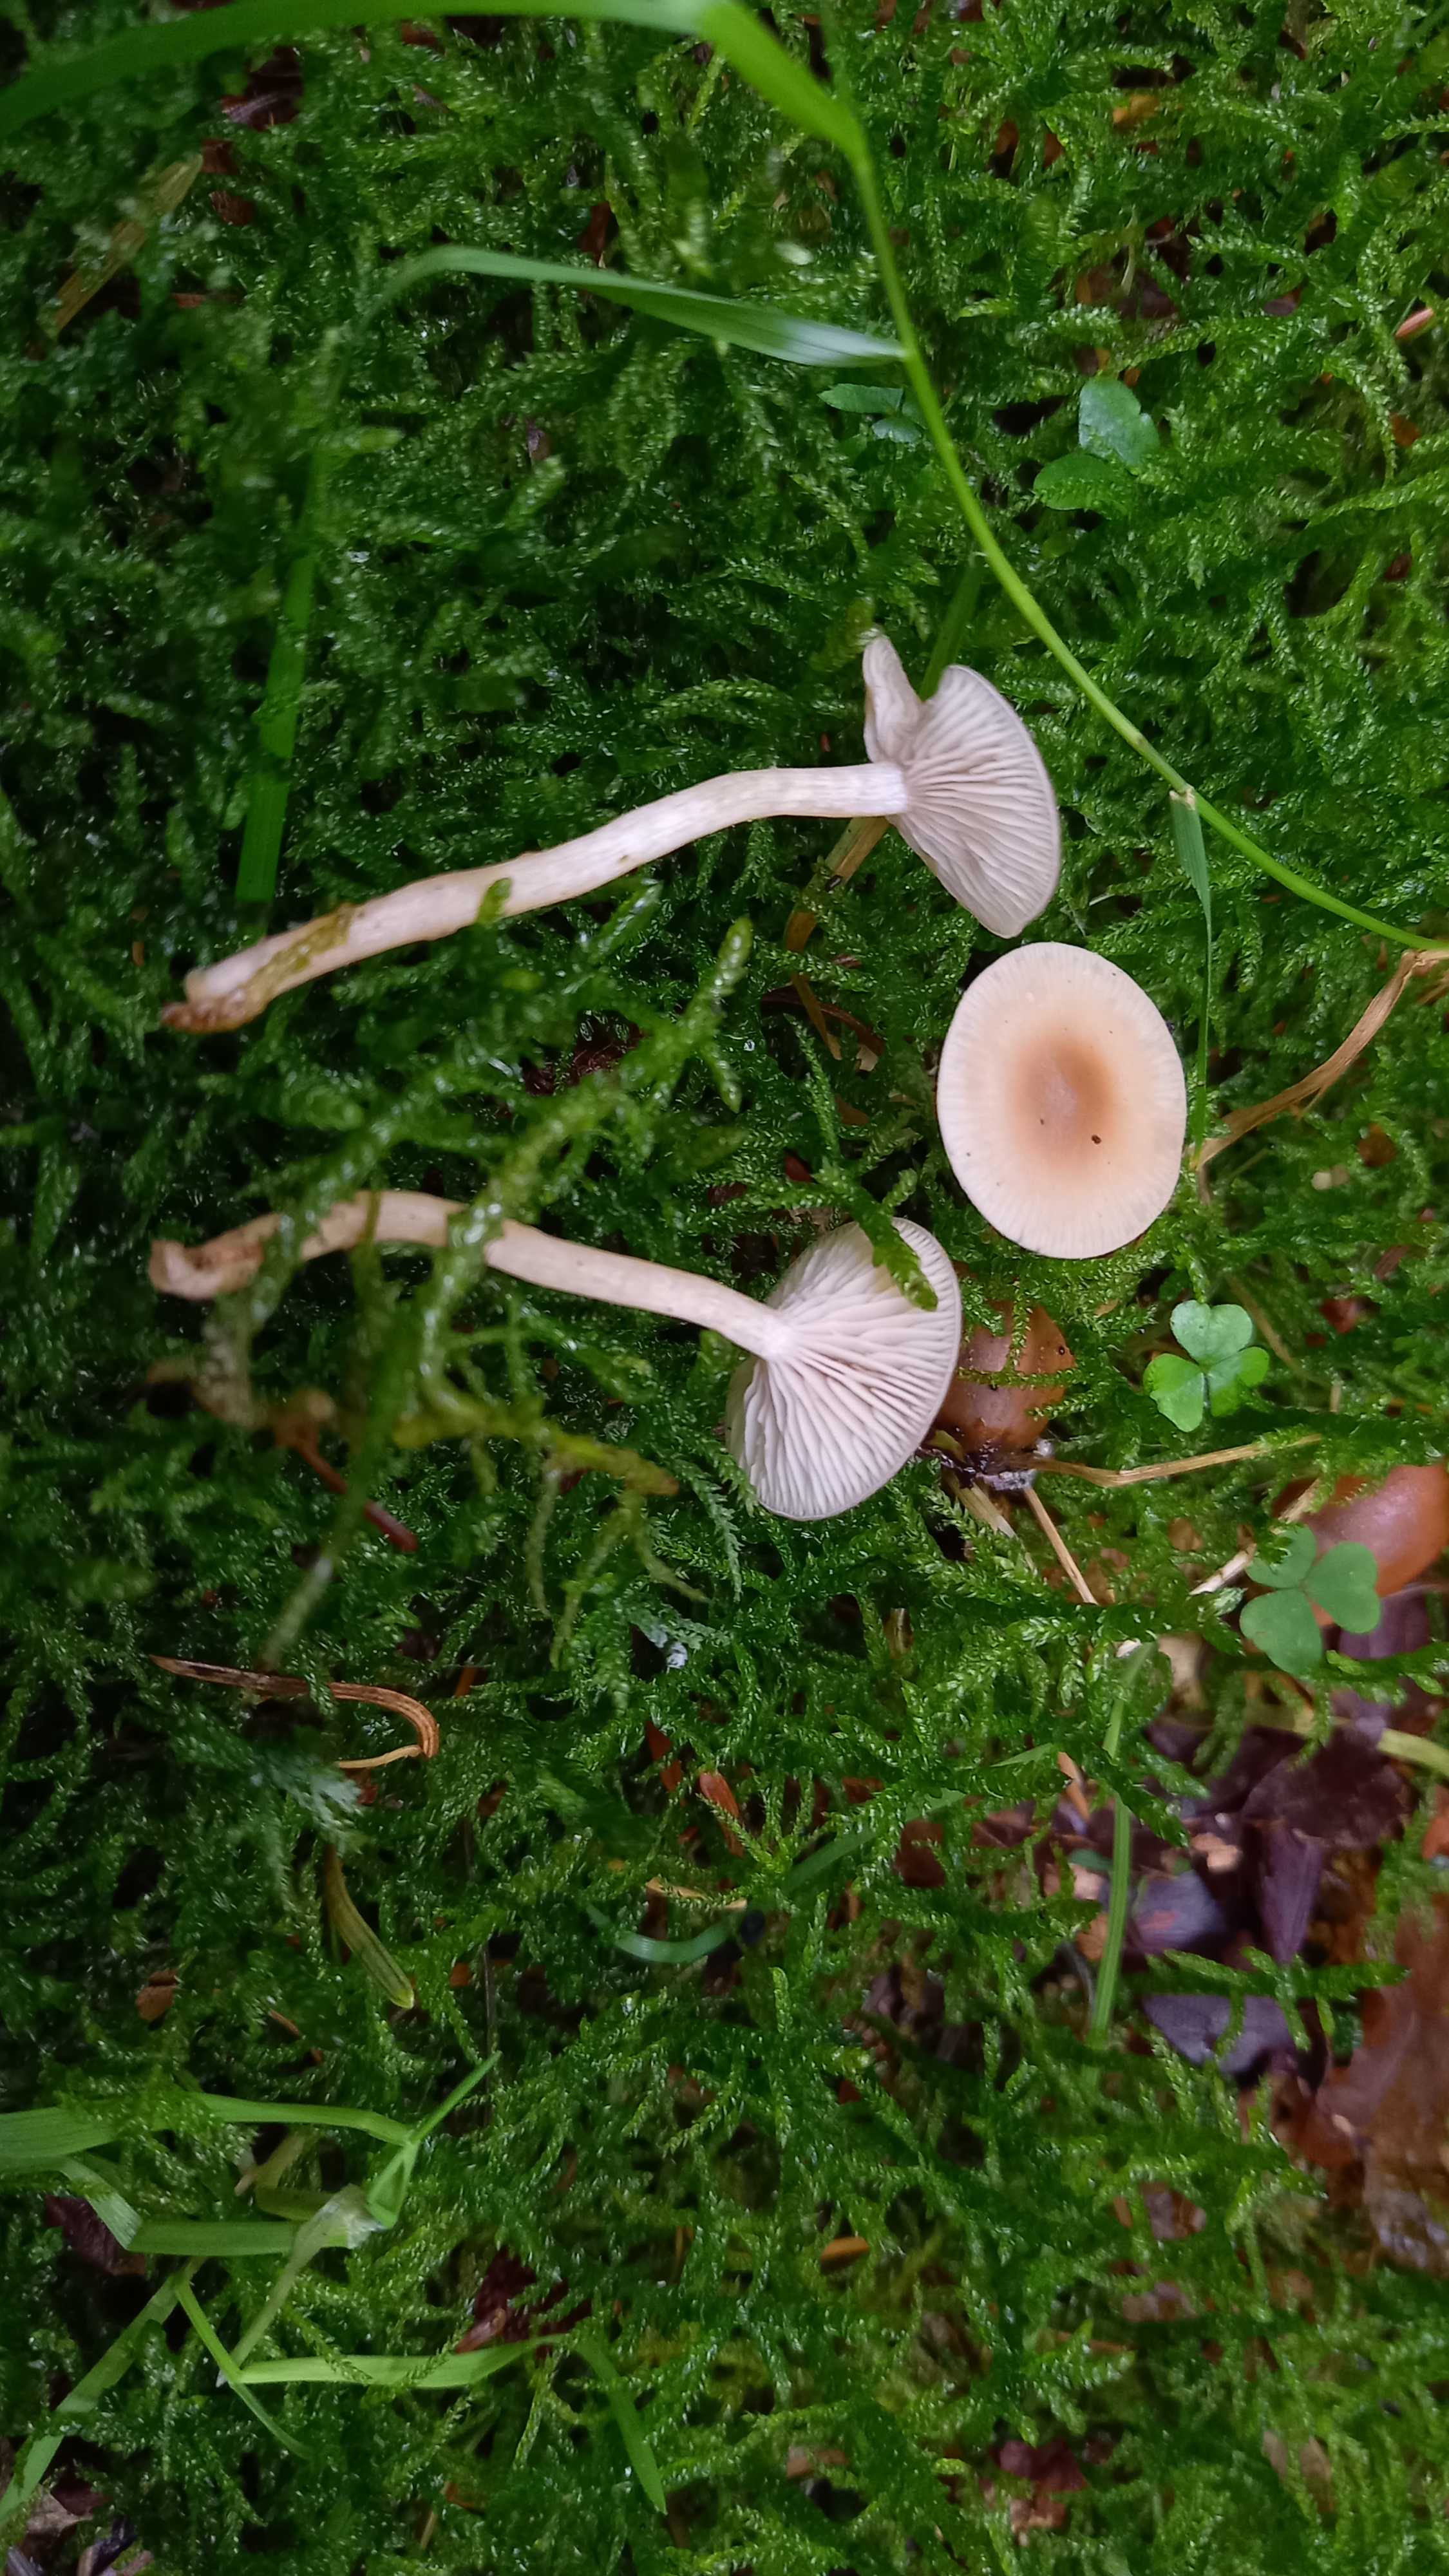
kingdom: Fungi
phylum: Basidiomycota
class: Agaricomycetes
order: Agaricales
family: Tricholomataceae
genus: Clitocybe
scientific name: Clitocybe fragrans
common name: vellugtende tragthat
